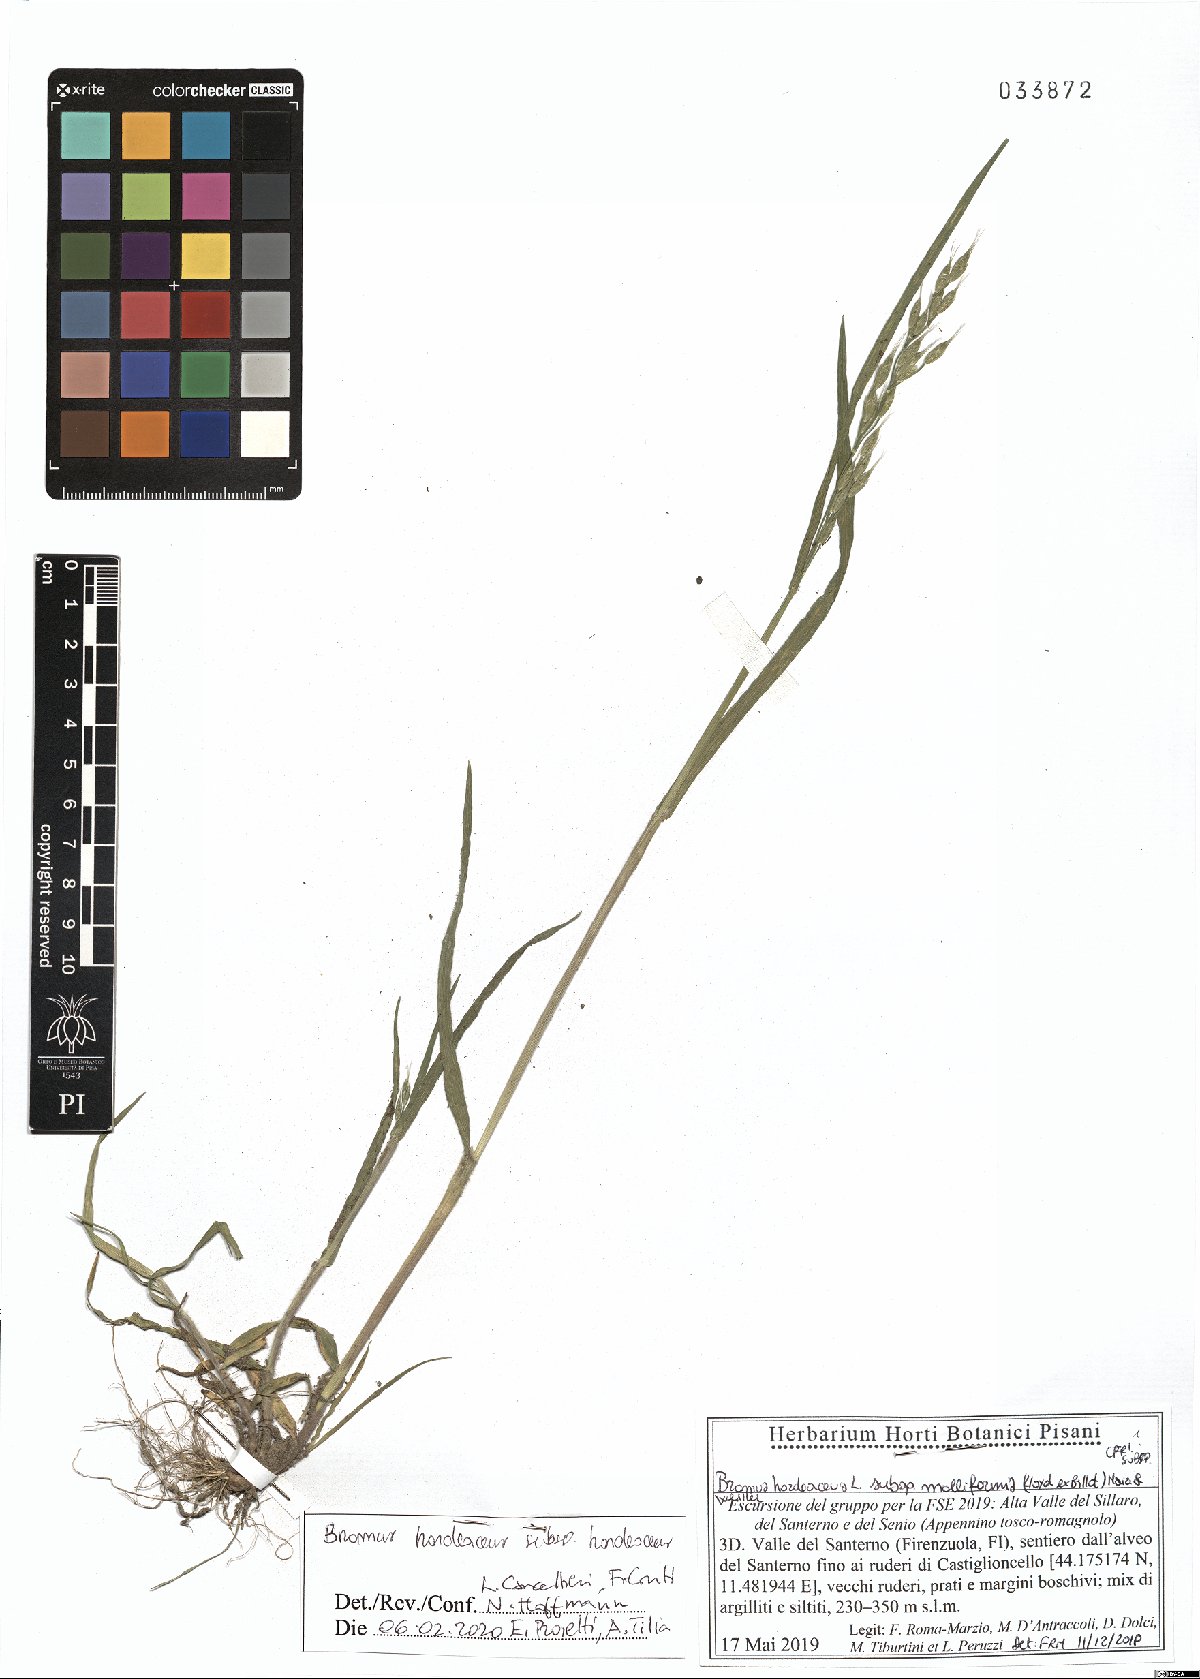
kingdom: Plantae
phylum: Tracheophyta
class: Liliopsida
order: Poales
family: Poaceae
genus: Bromus
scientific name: Bromus hordeaceus
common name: Soft brome
